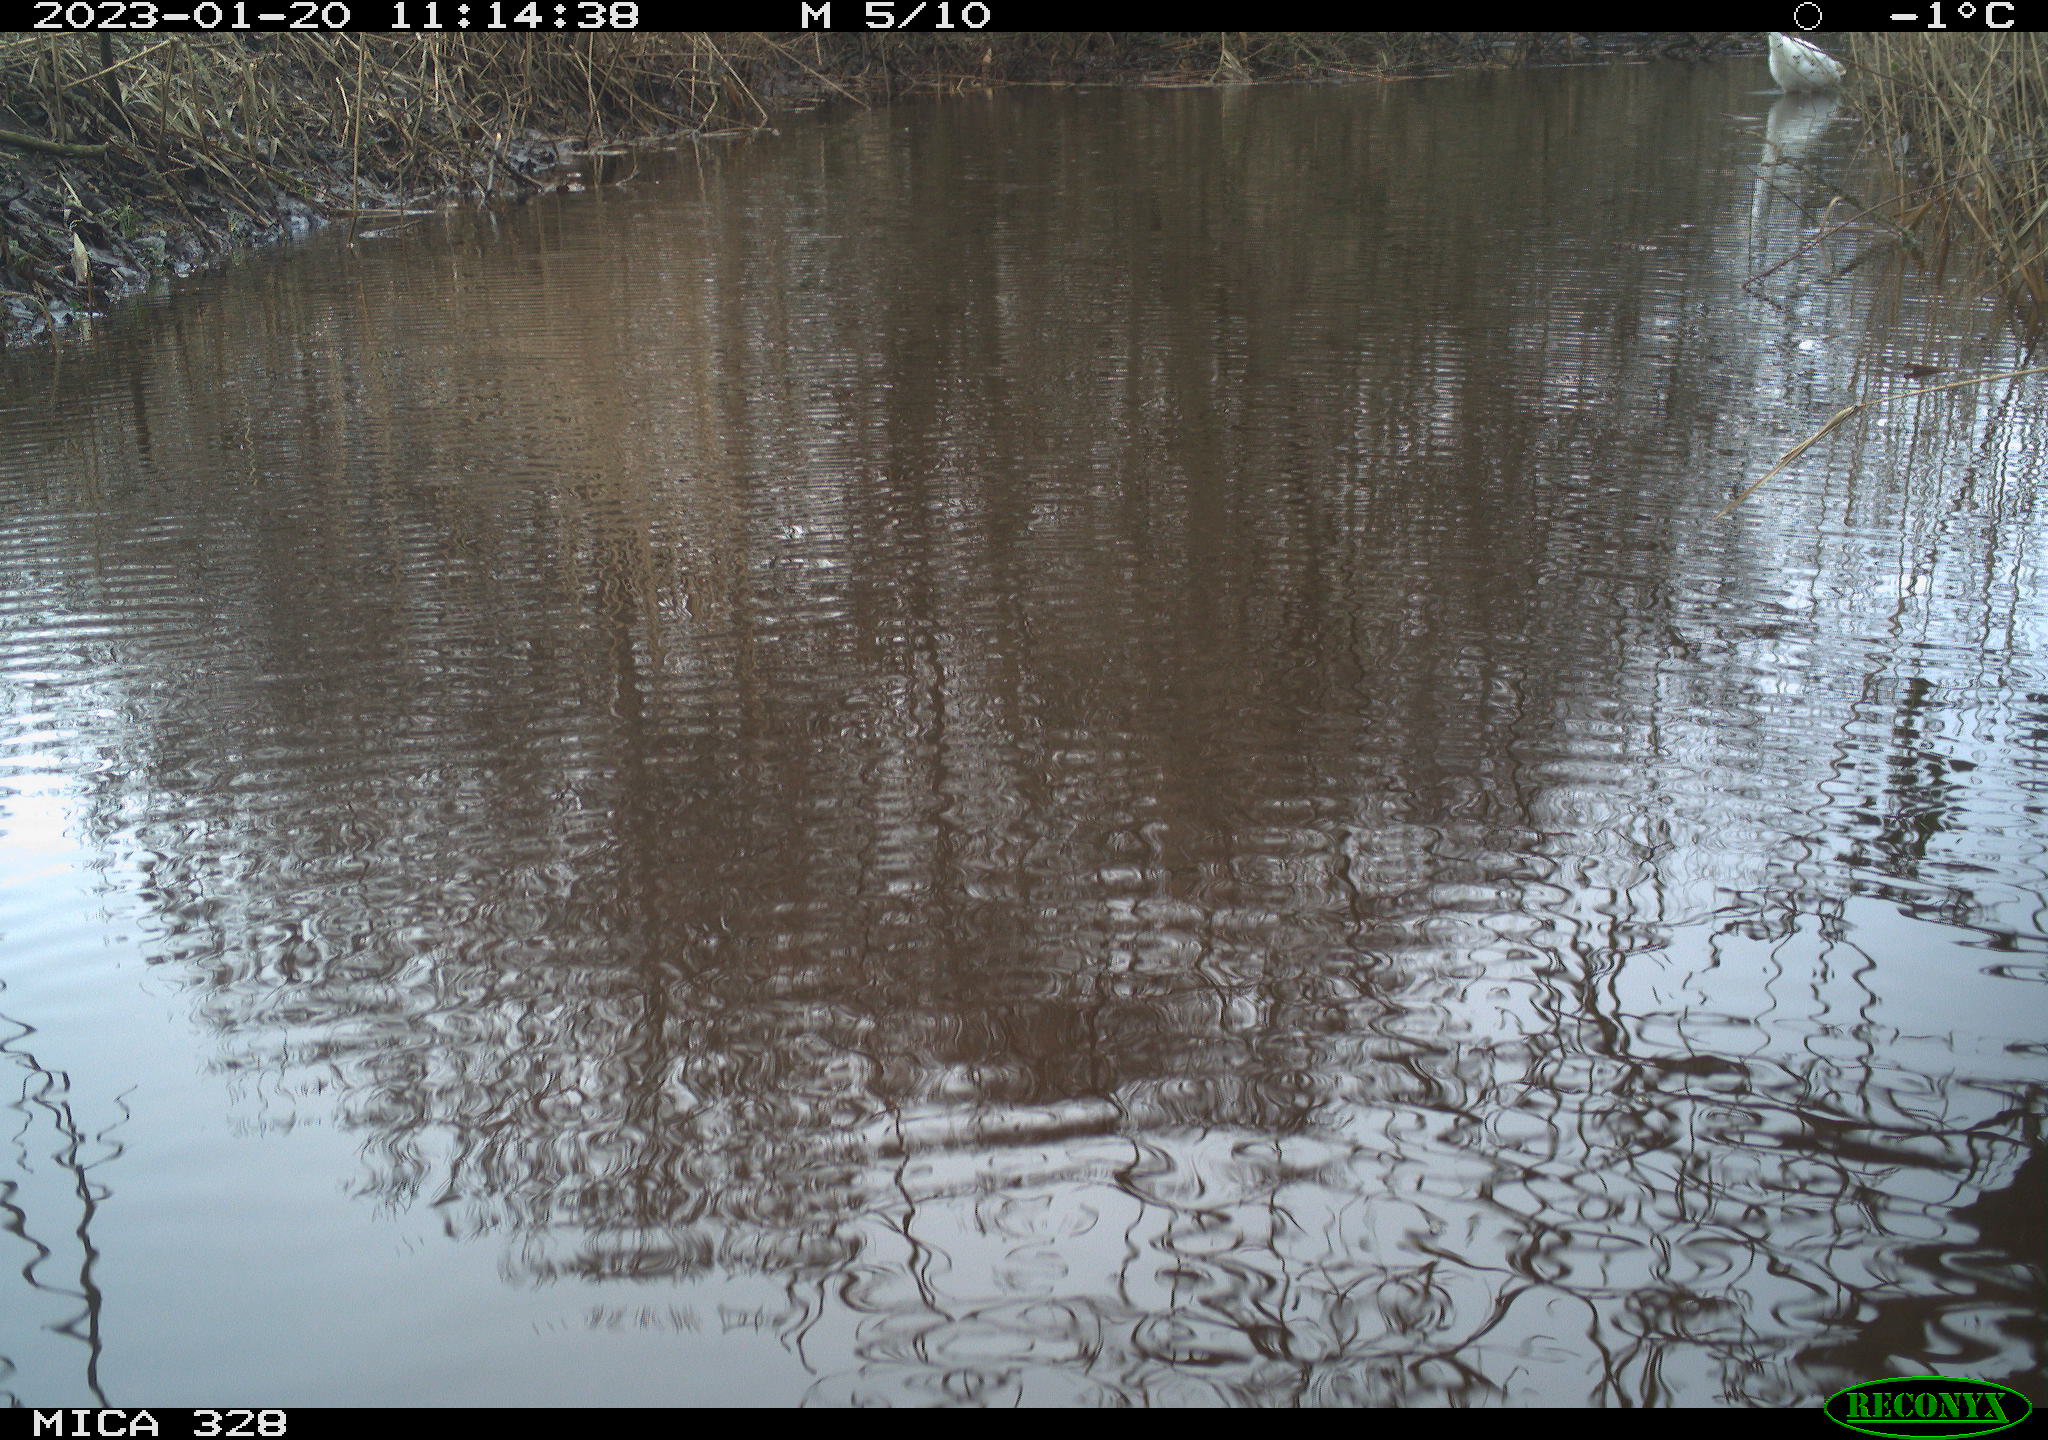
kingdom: Animalia
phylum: Chordata
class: Aves
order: Pelecaniformes
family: Ardeidae
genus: Ardea
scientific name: Ardea alba
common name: Great egret
